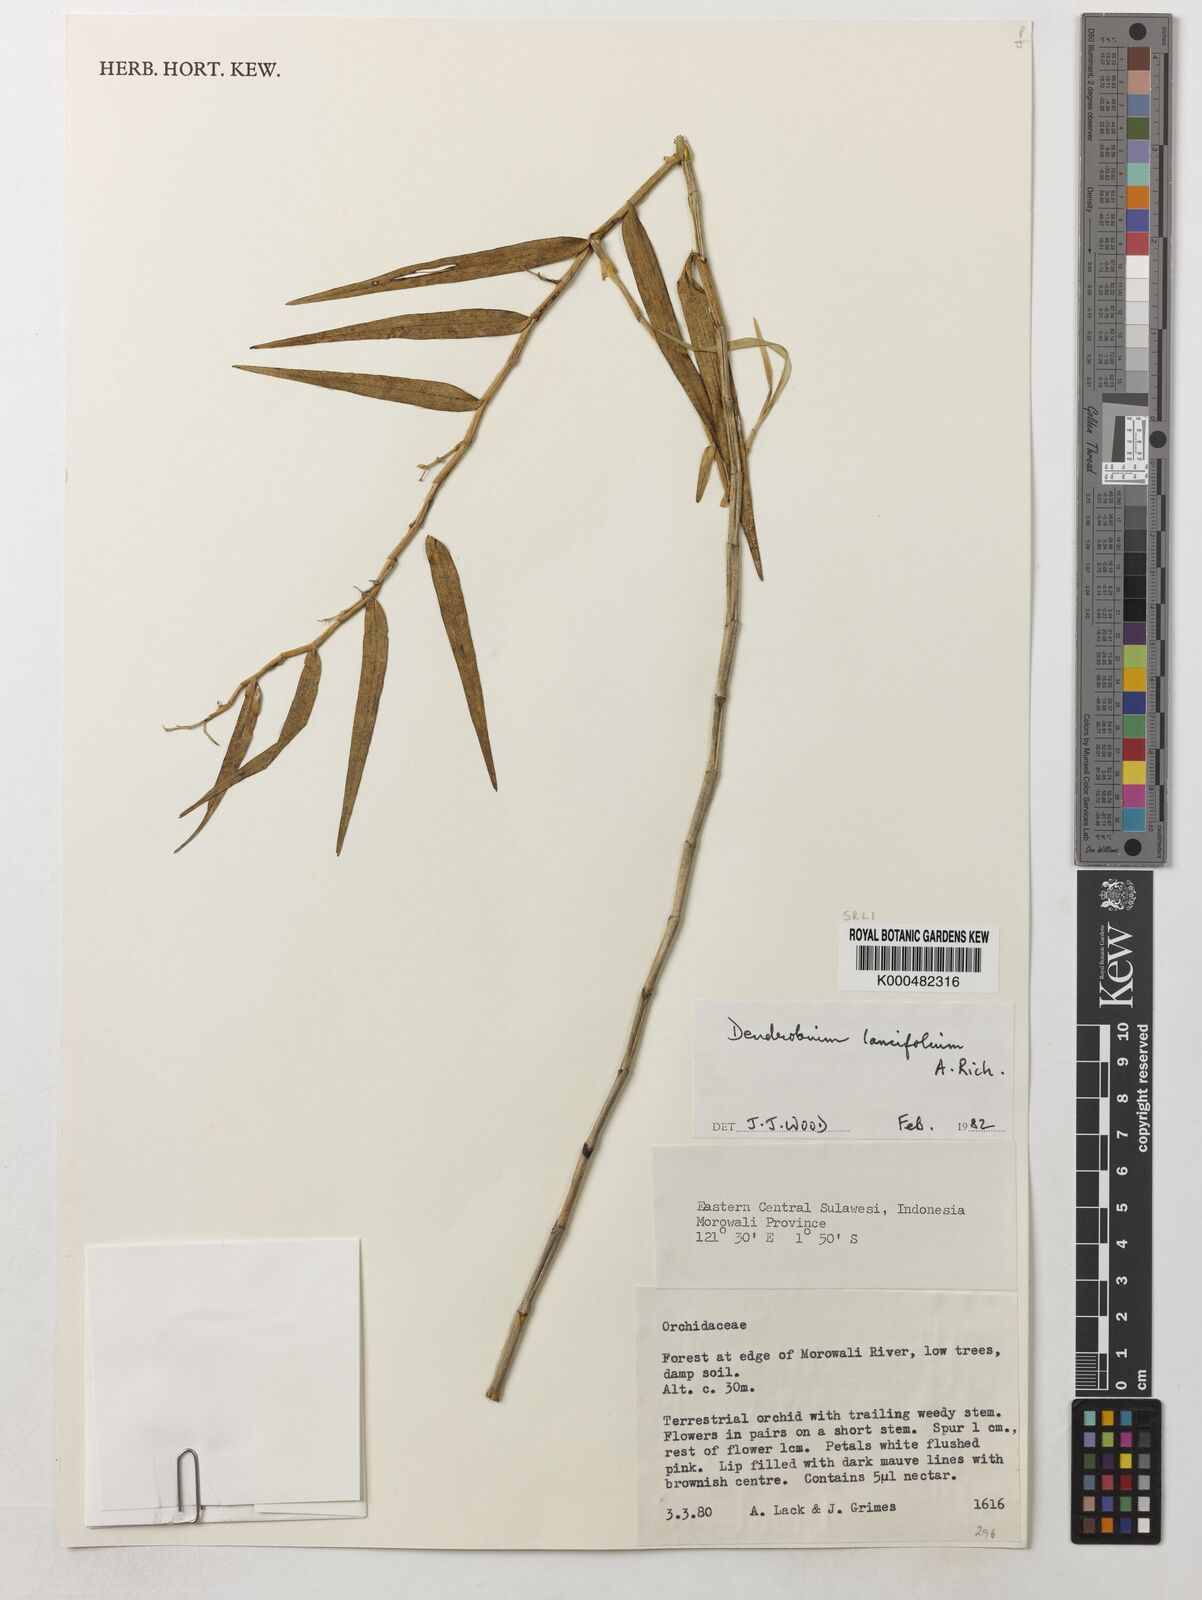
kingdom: Plantae
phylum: Tracheophyta
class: Liliopsida
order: Asparagales
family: Orchidaceae
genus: Dendrobium
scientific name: Dendrobium lanceolatum
